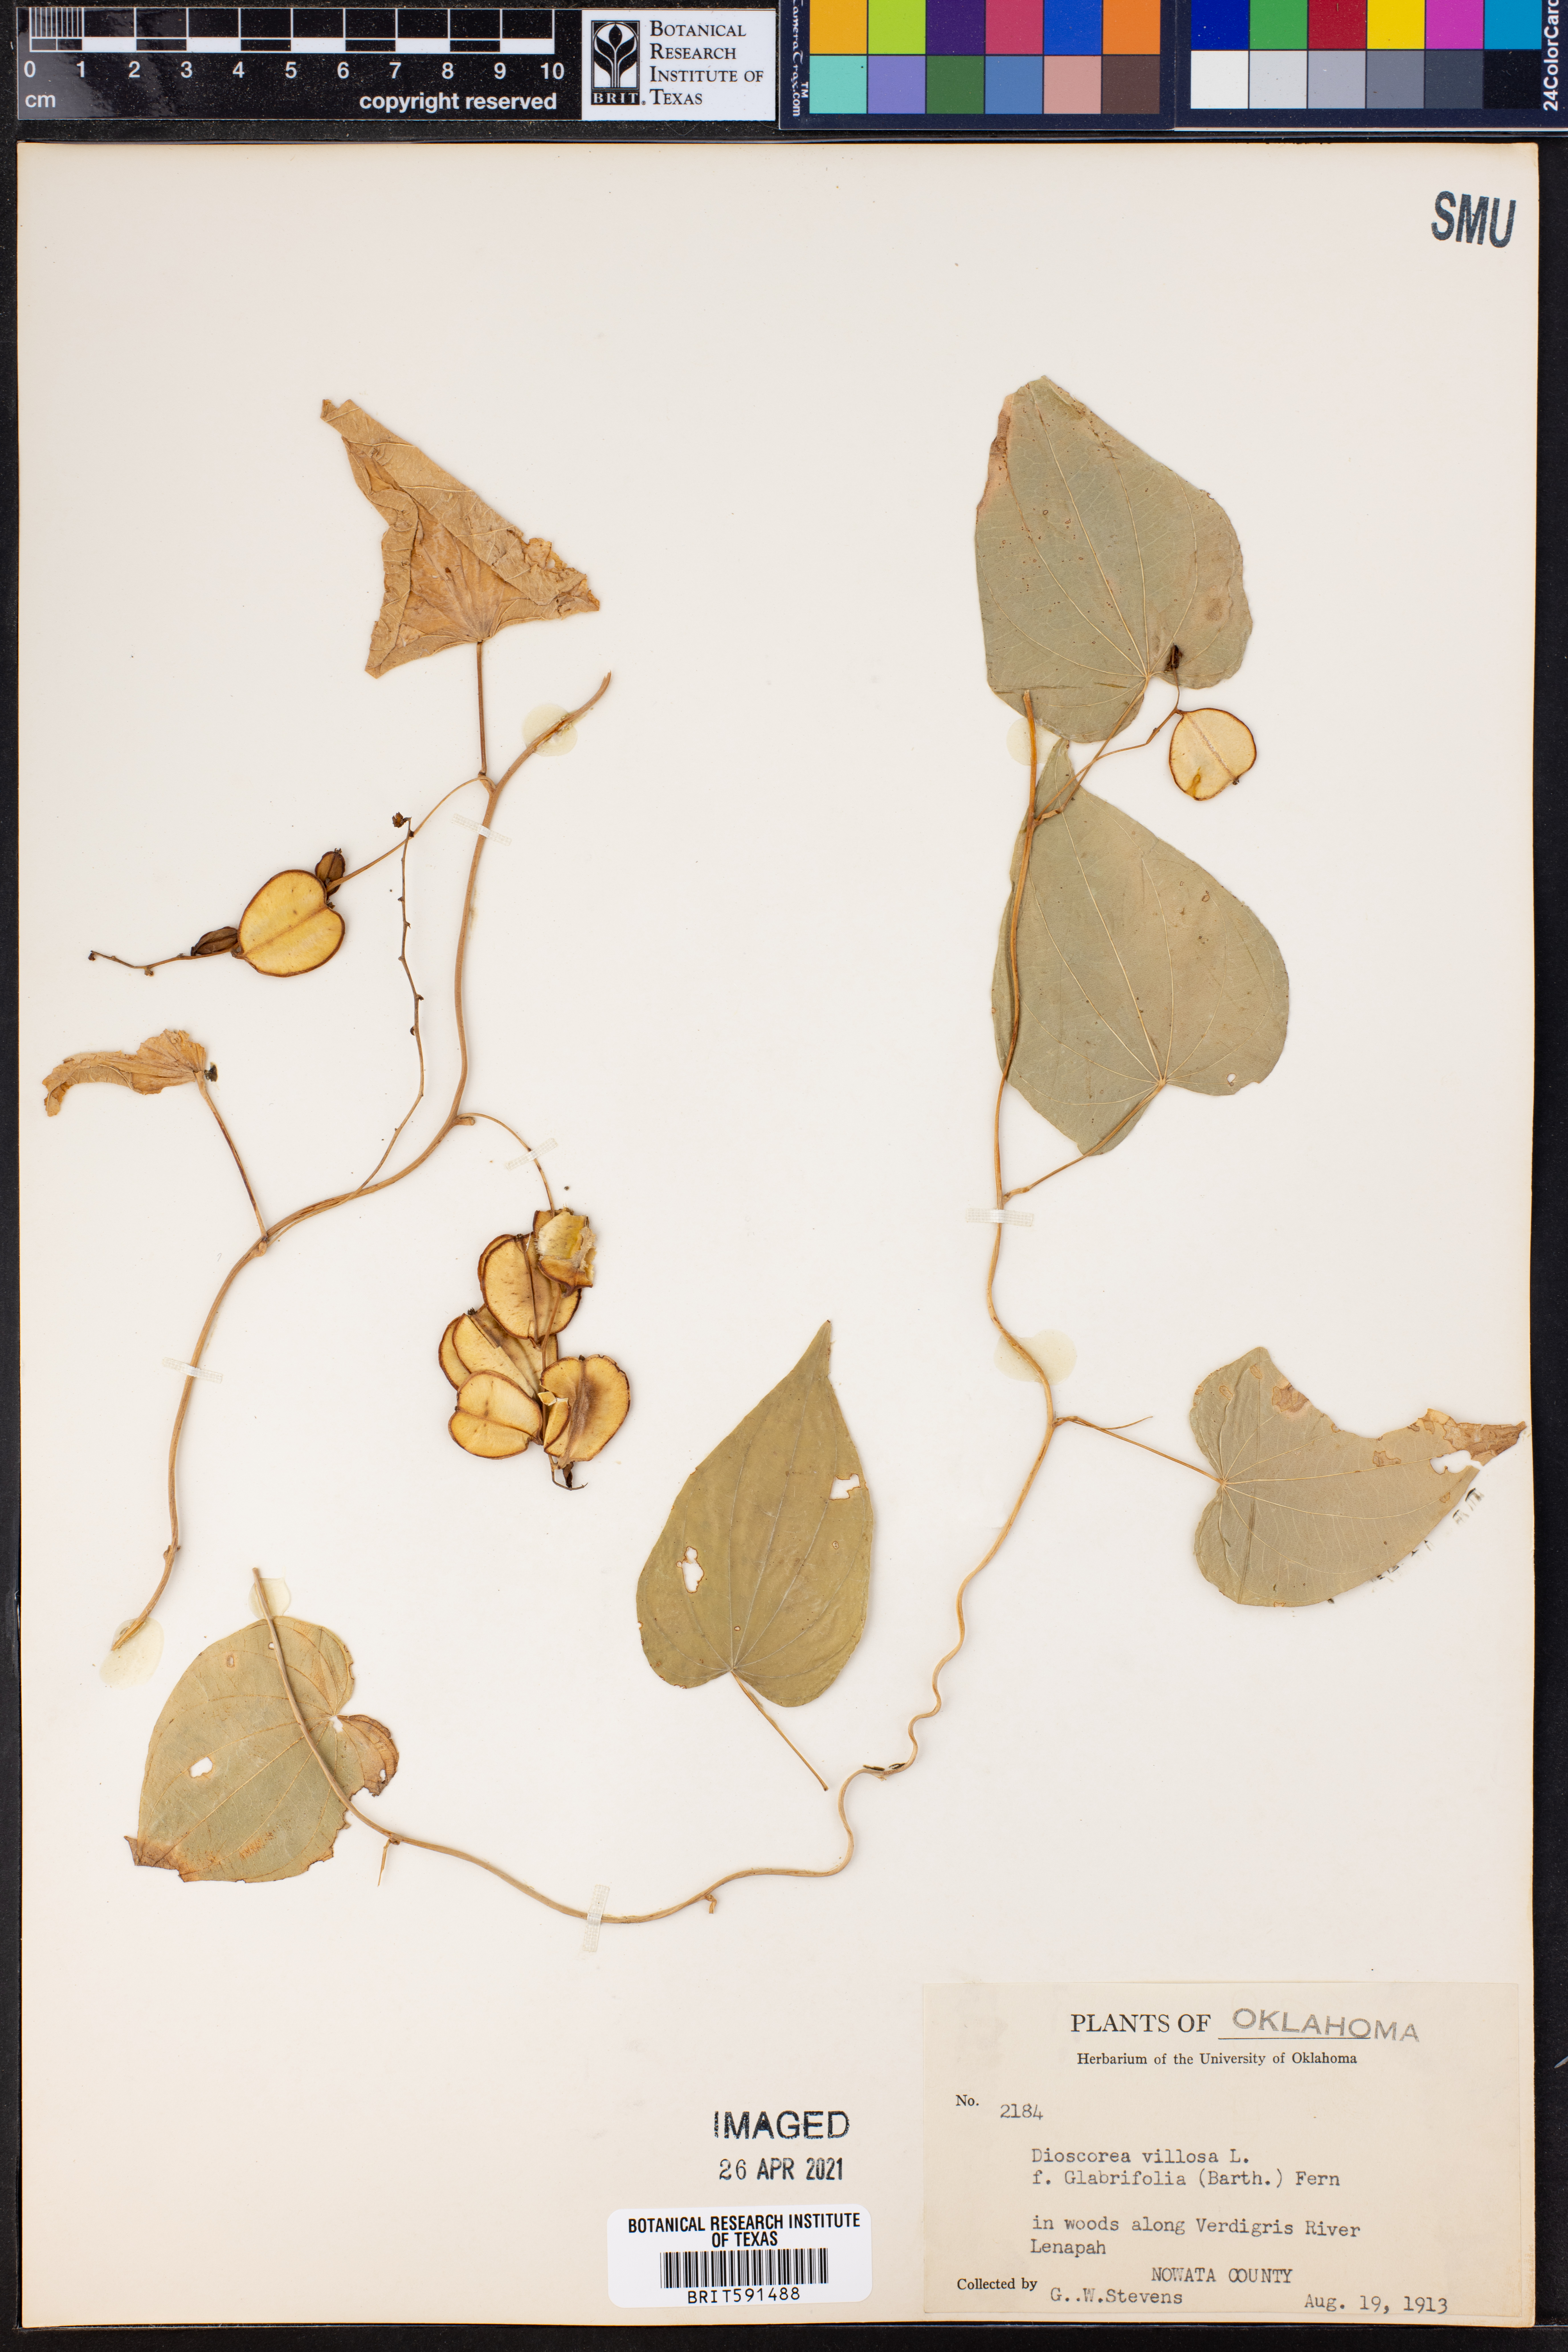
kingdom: Plantae
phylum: Tracheophyta
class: Liliopsida
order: Dioscoreales
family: Dioscoreaceae
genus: Dioscorea
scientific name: Dioscorea villosa
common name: Wild yam
